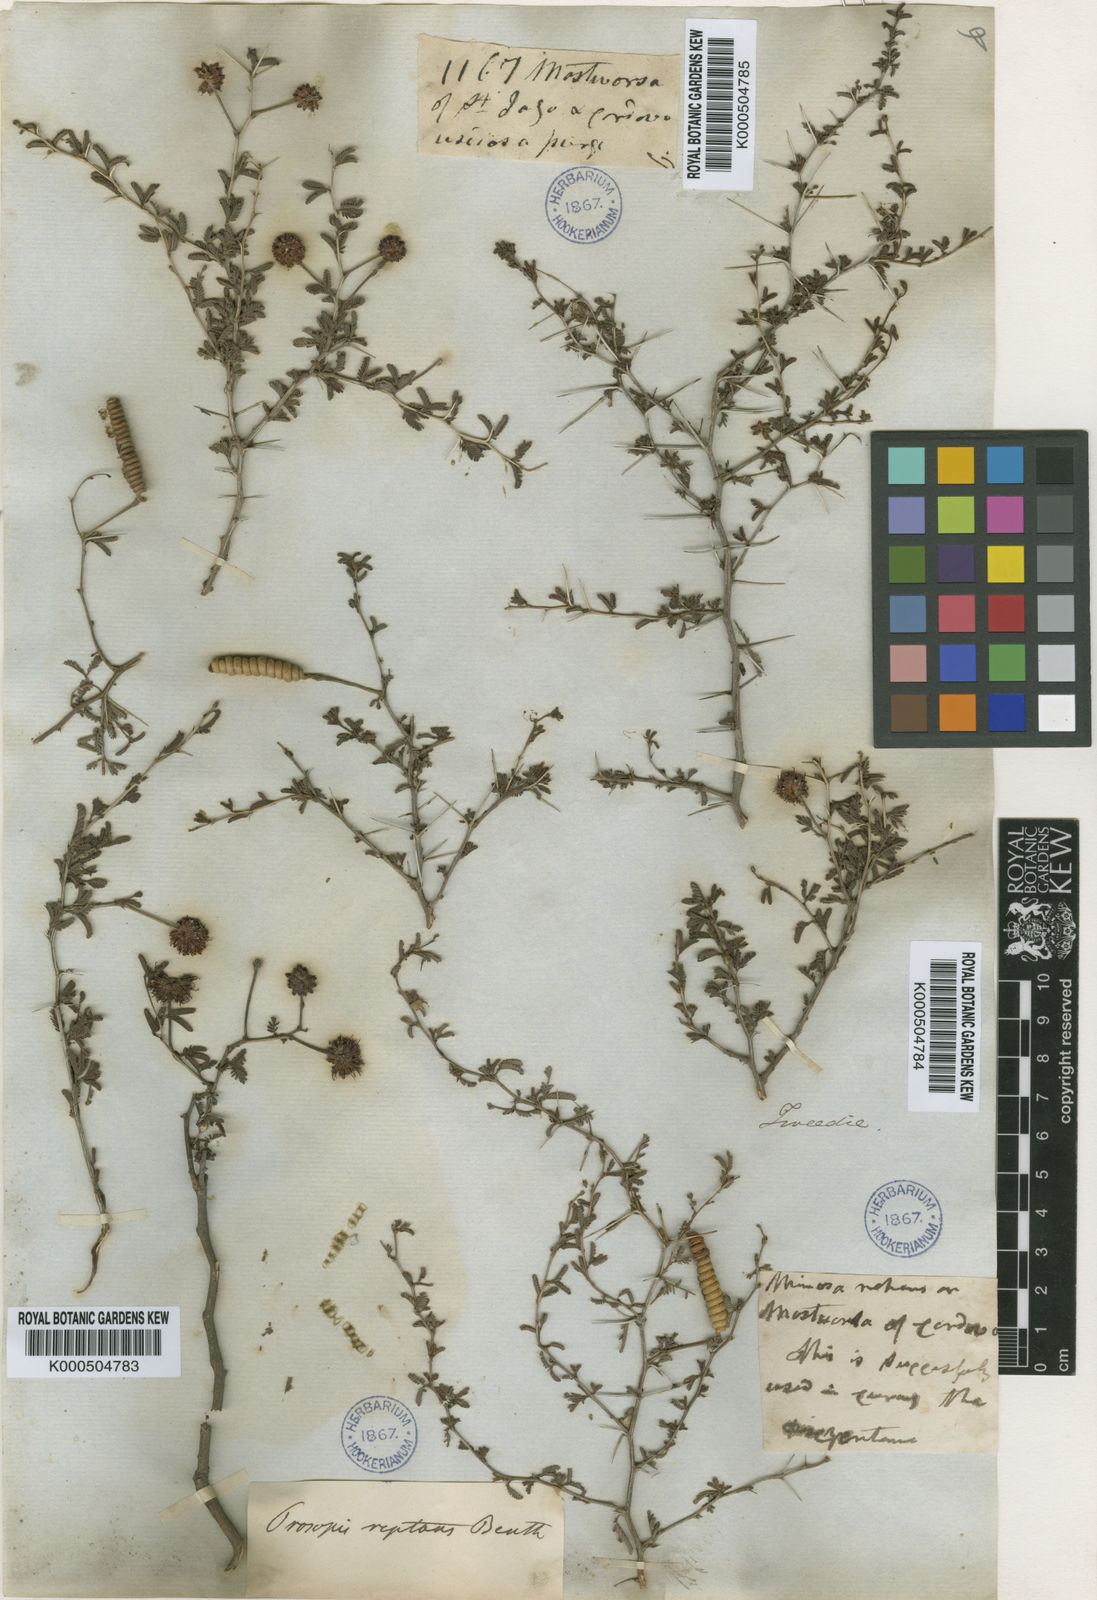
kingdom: Plantae
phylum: Tracheophyta
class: Magnoliopsida
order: Fabales
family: Fabaceae
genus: Prosopis
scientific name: Prosopis reptans
